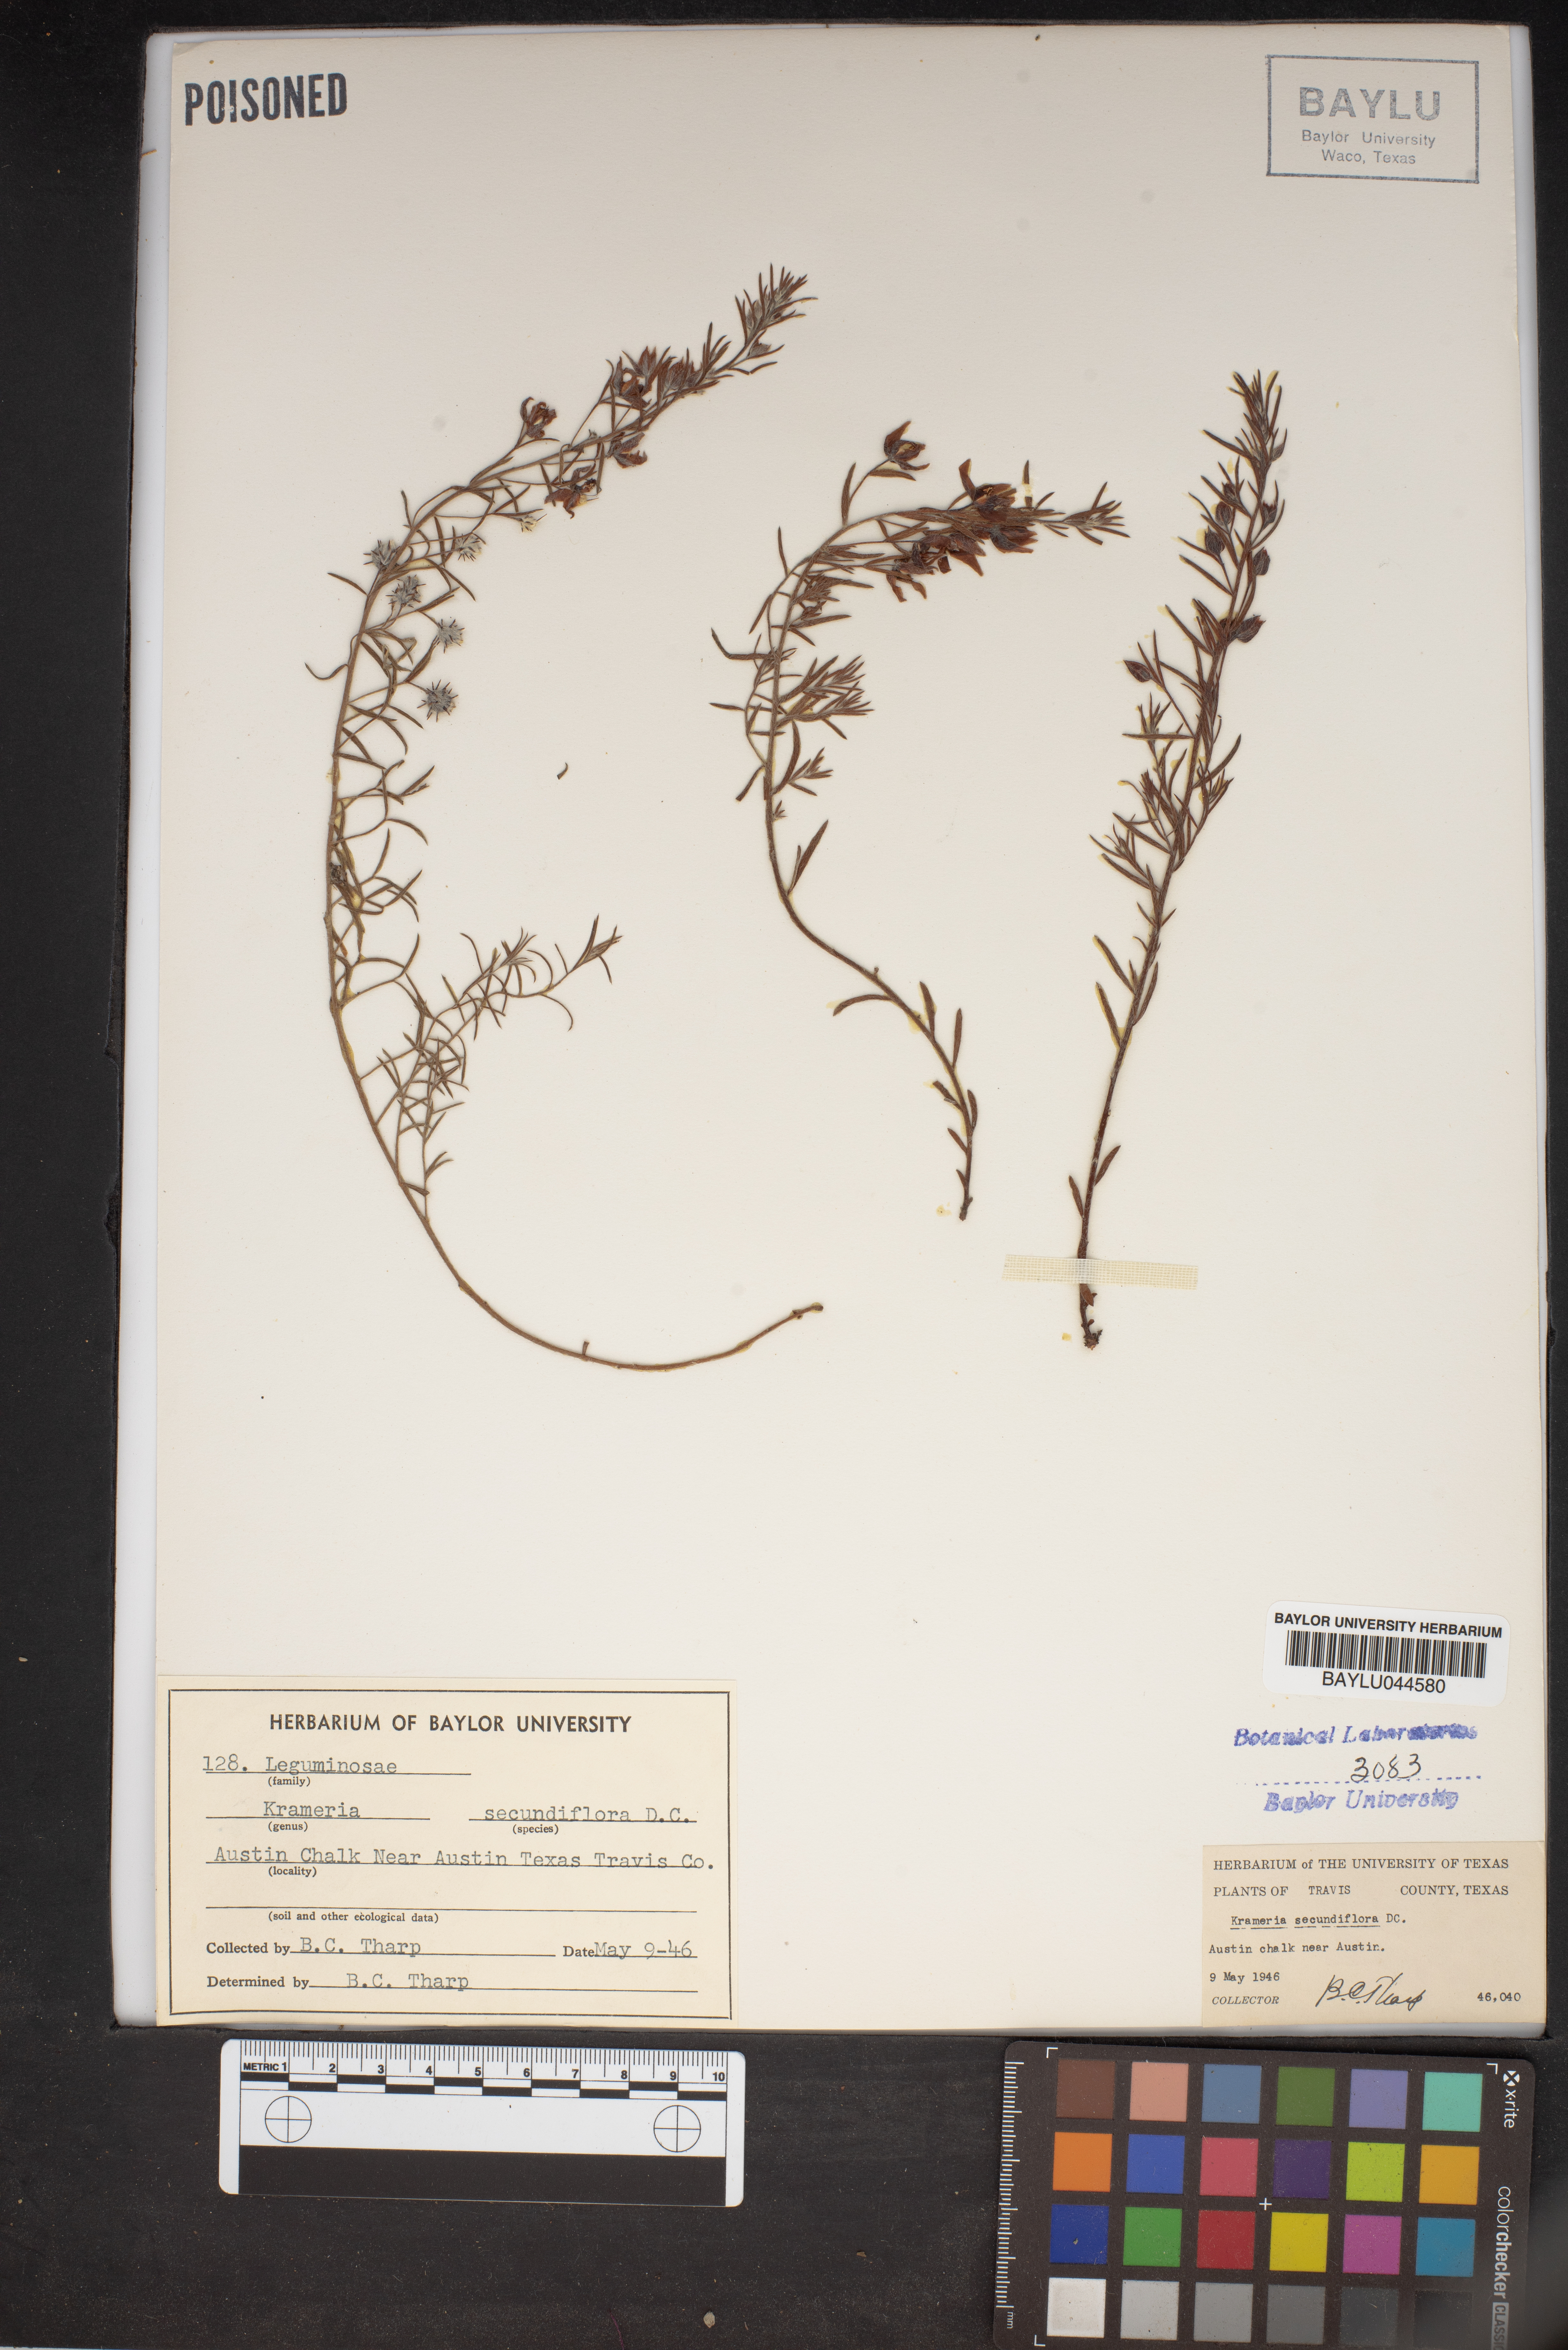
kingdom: Plantae
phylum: Tracheophyta
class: Magnoliopsida
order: Zygophyllales
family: Krameriaceae
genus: Krameria
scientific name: Krameria secundiflora
